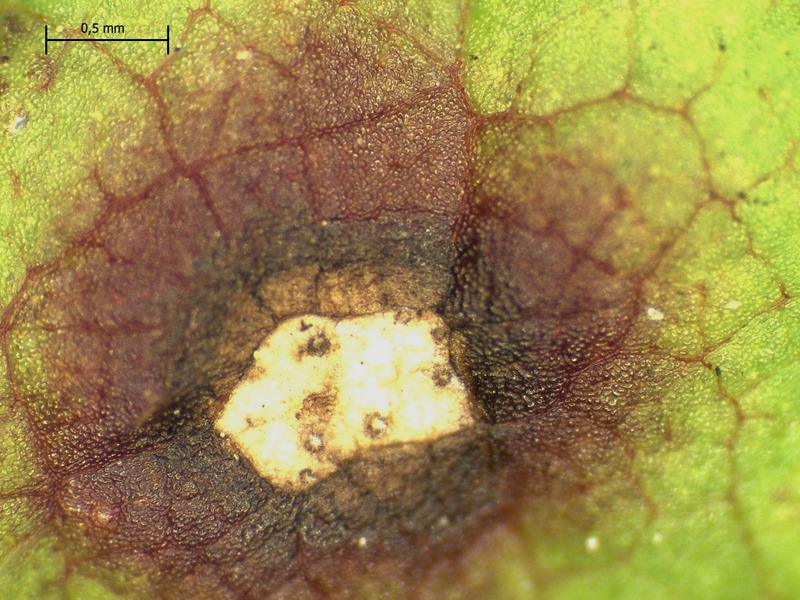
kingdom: Fungi
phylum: Ascomycota
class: Dothideomycetes
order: Mycosphaerellales
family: Mycosphaerellaceae
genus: Mycosphaerella
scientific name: Mycosphaerella rubi
